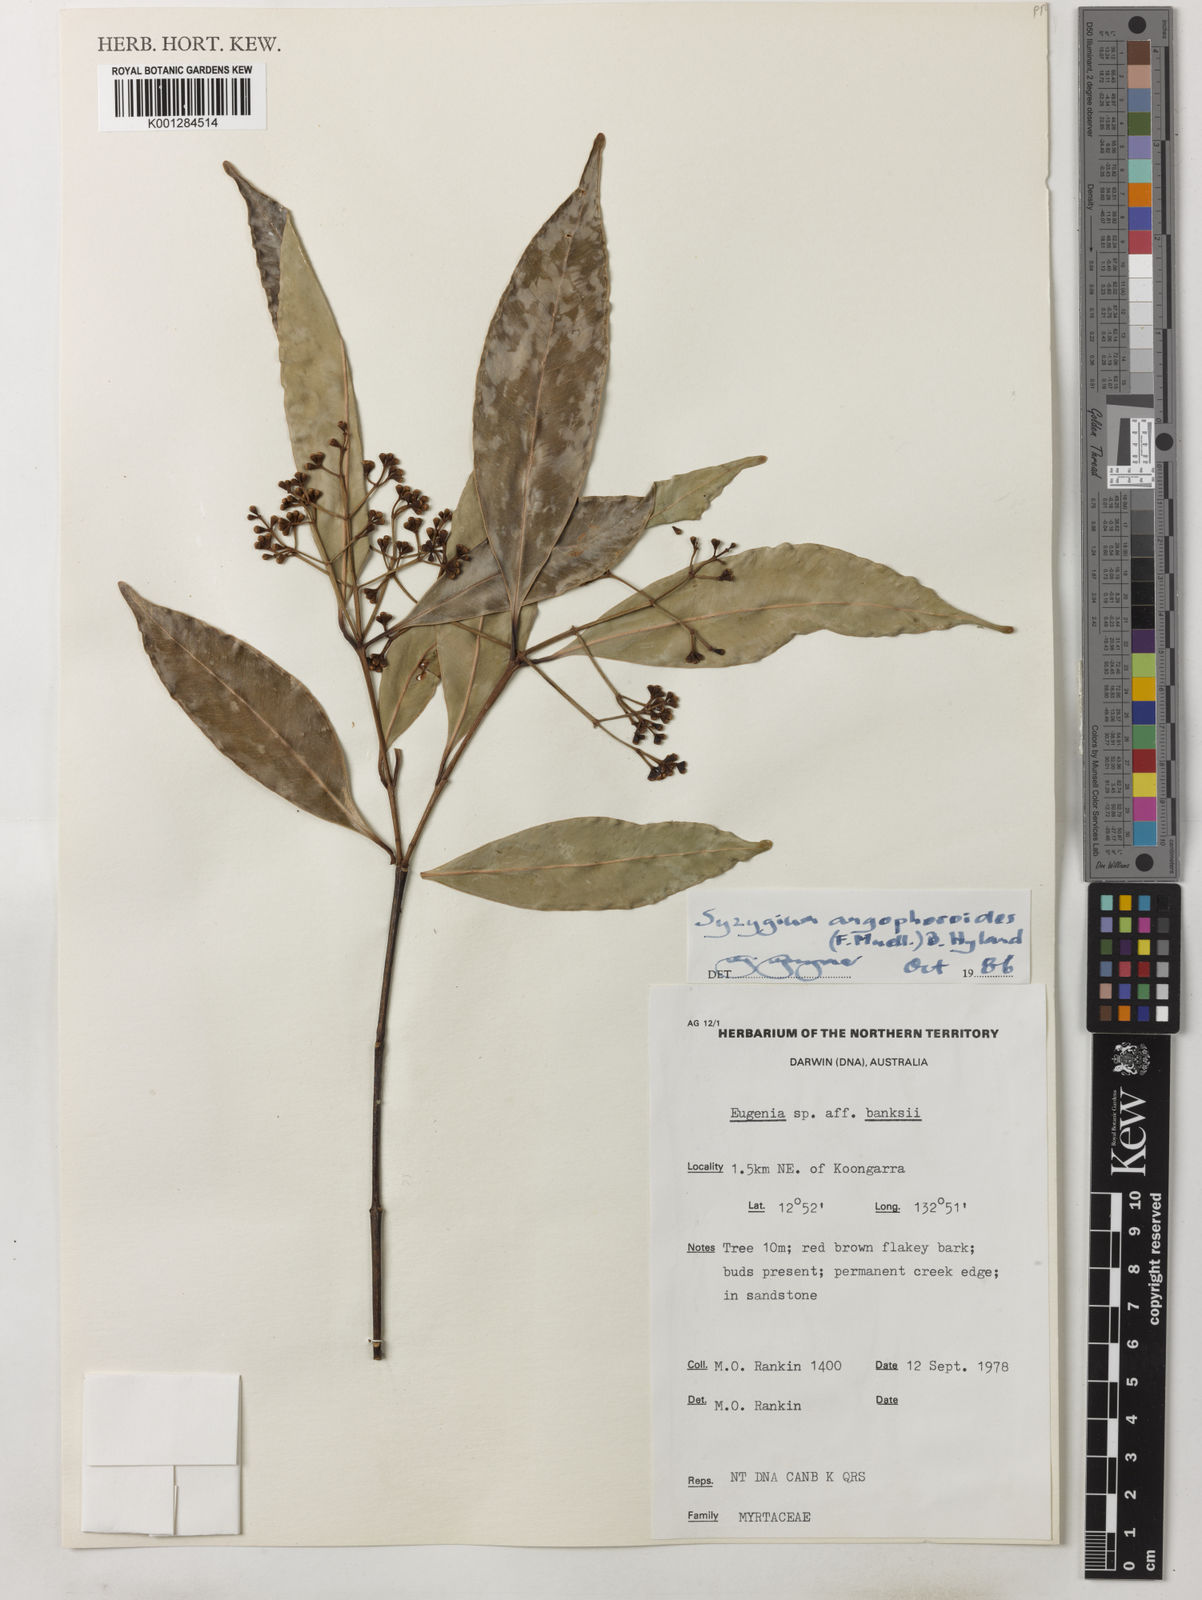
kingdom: Plantae
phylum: Tracheophyta
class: Magnoliopsida
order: Myrtales
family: Myrtaceae
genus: Syzygium
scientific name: Syzygium angophoroides
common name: Swamp satinash
